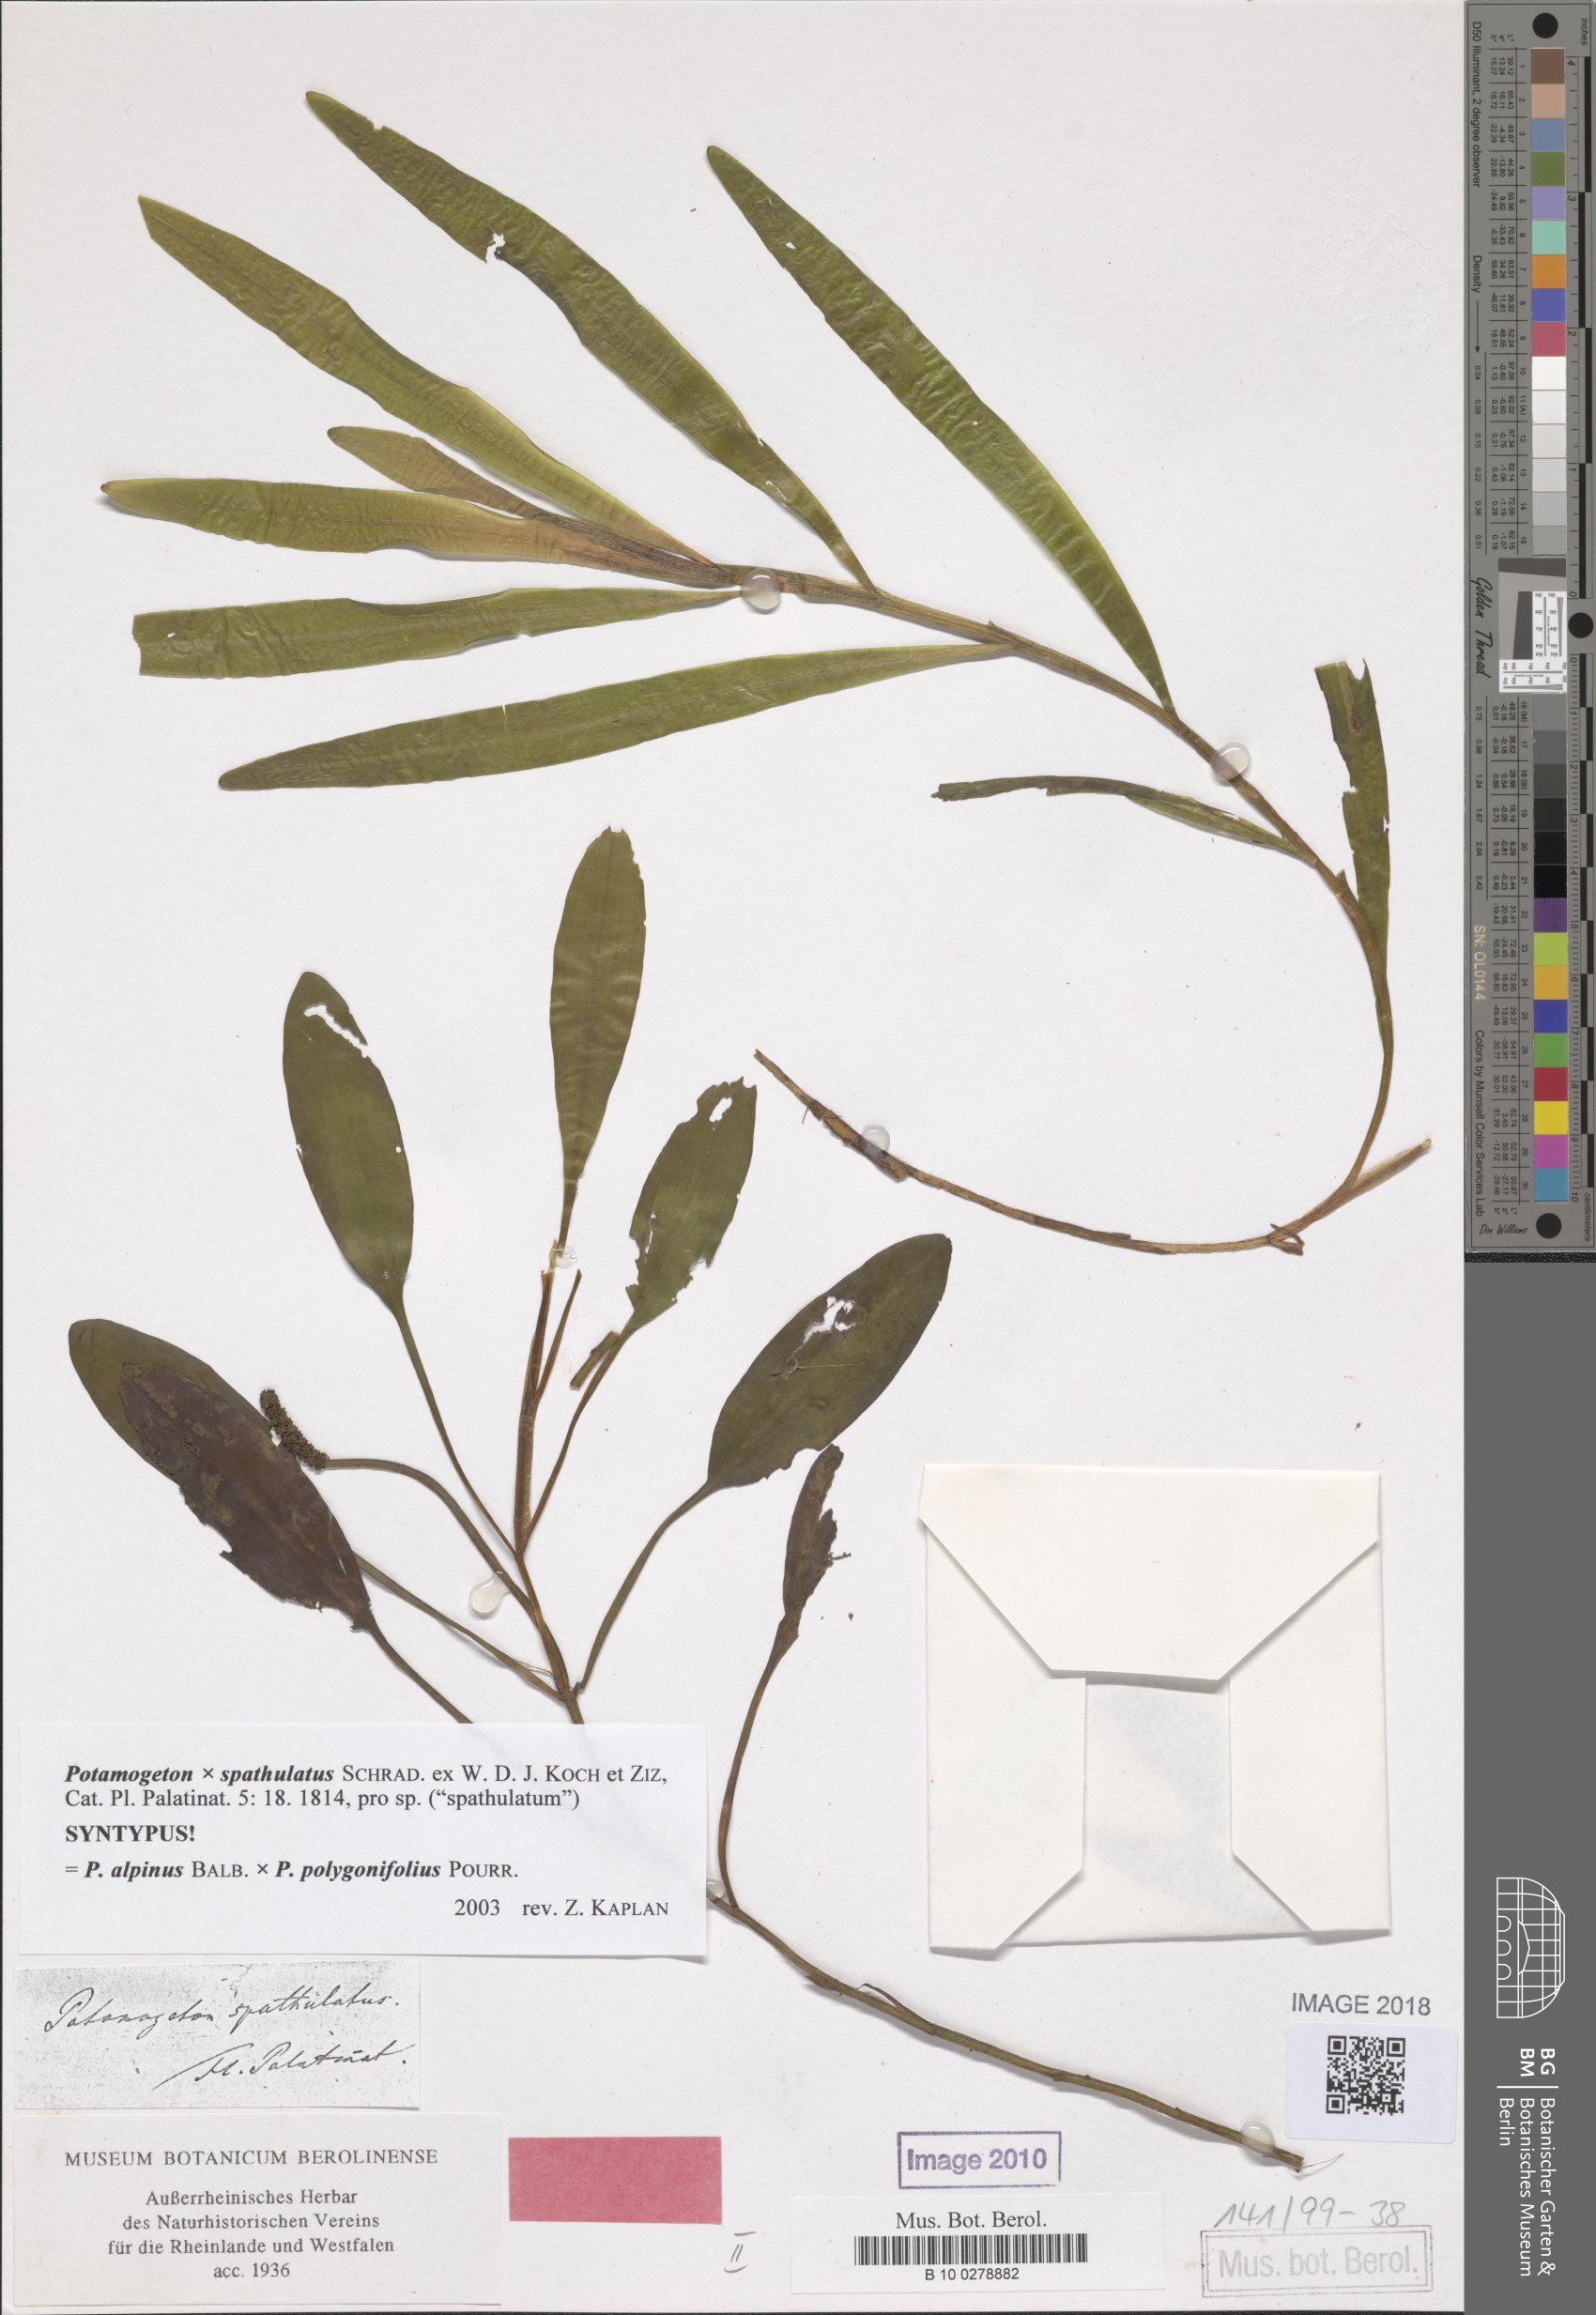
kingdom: Plantae
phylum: Tracheophyta
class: Liliopsida
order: Alismatales
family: Potamogetonaceae
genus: Potamogeton
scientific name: Potamogeton spathulatus
